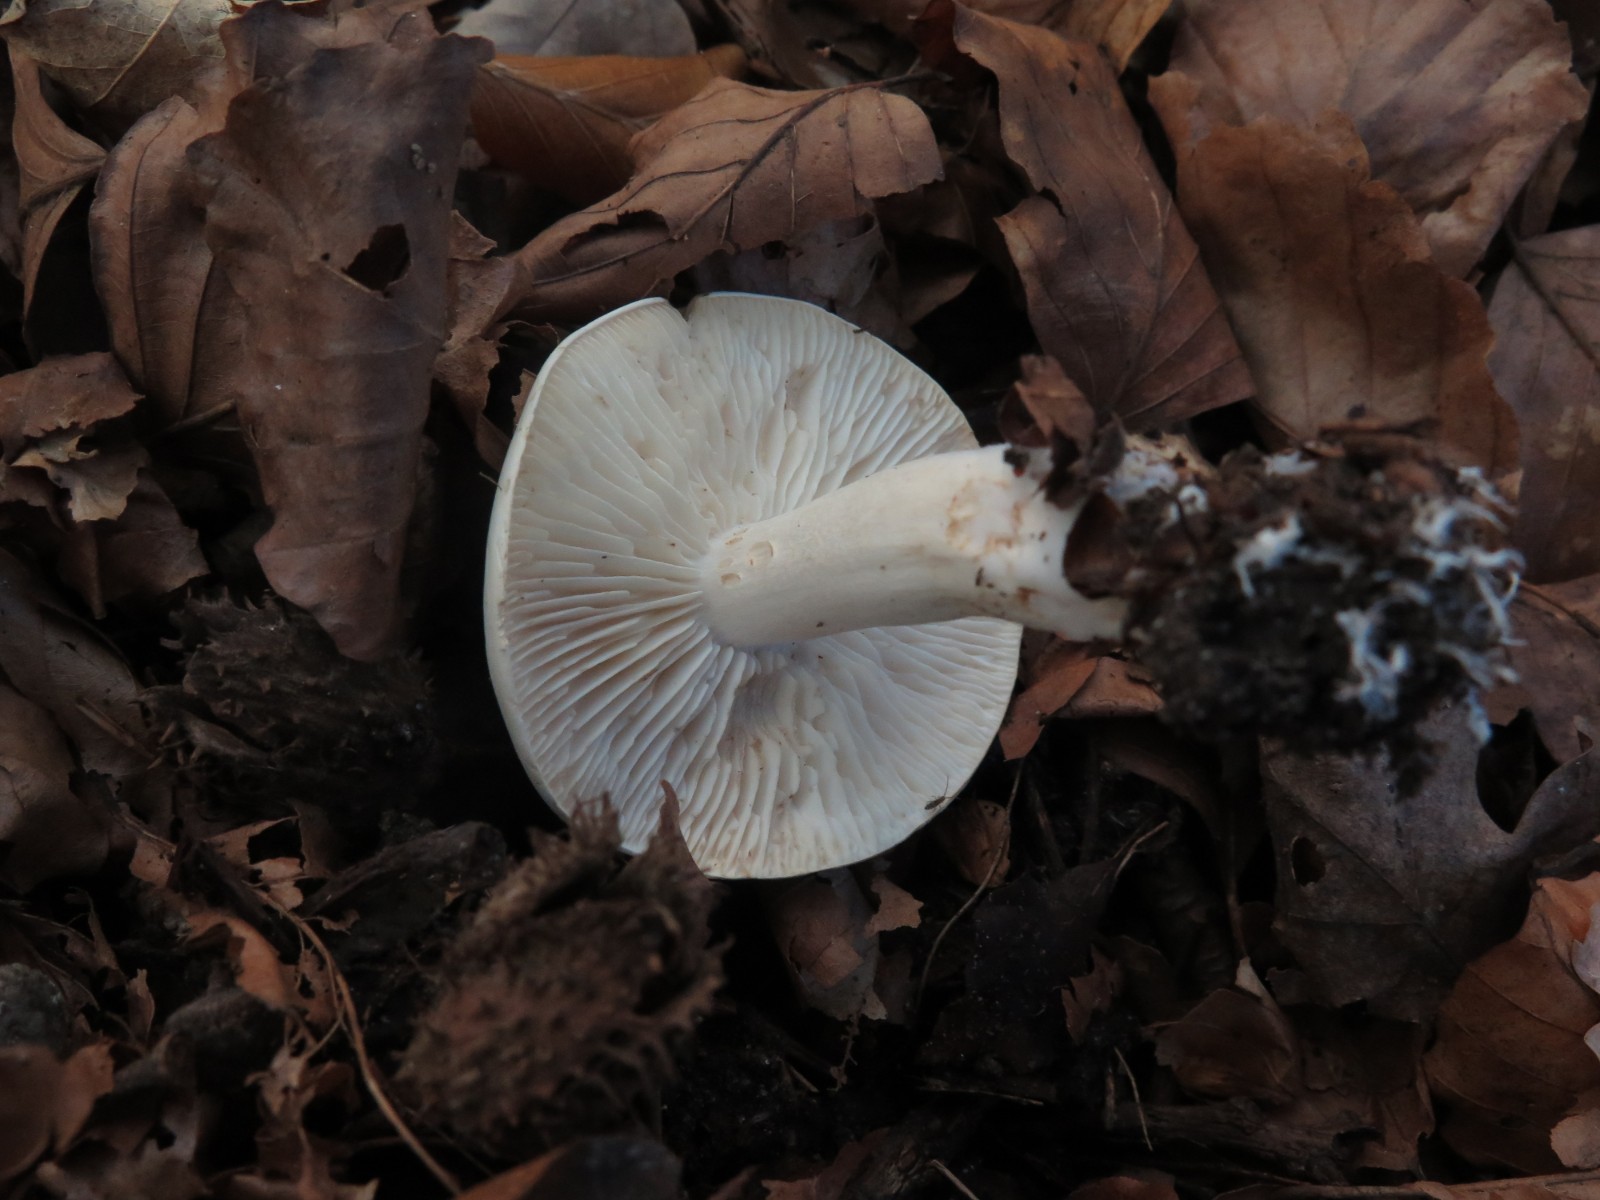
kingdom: Fungi
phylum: Basidiomycota
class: Agaricomycetes
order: Agaricales
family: Tricholomataceae
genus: Tricholoma
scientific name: Tricholoma lascivum
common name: stinkende ridderhat
